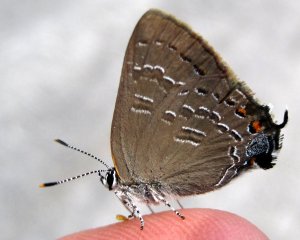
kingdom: Animalia
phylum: Arthropoda
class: Insecta
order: Lepidoptera
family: Lycaenidae
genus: Strymon
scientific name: Strymon caryaevorus
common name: Hickory Hairstreak
